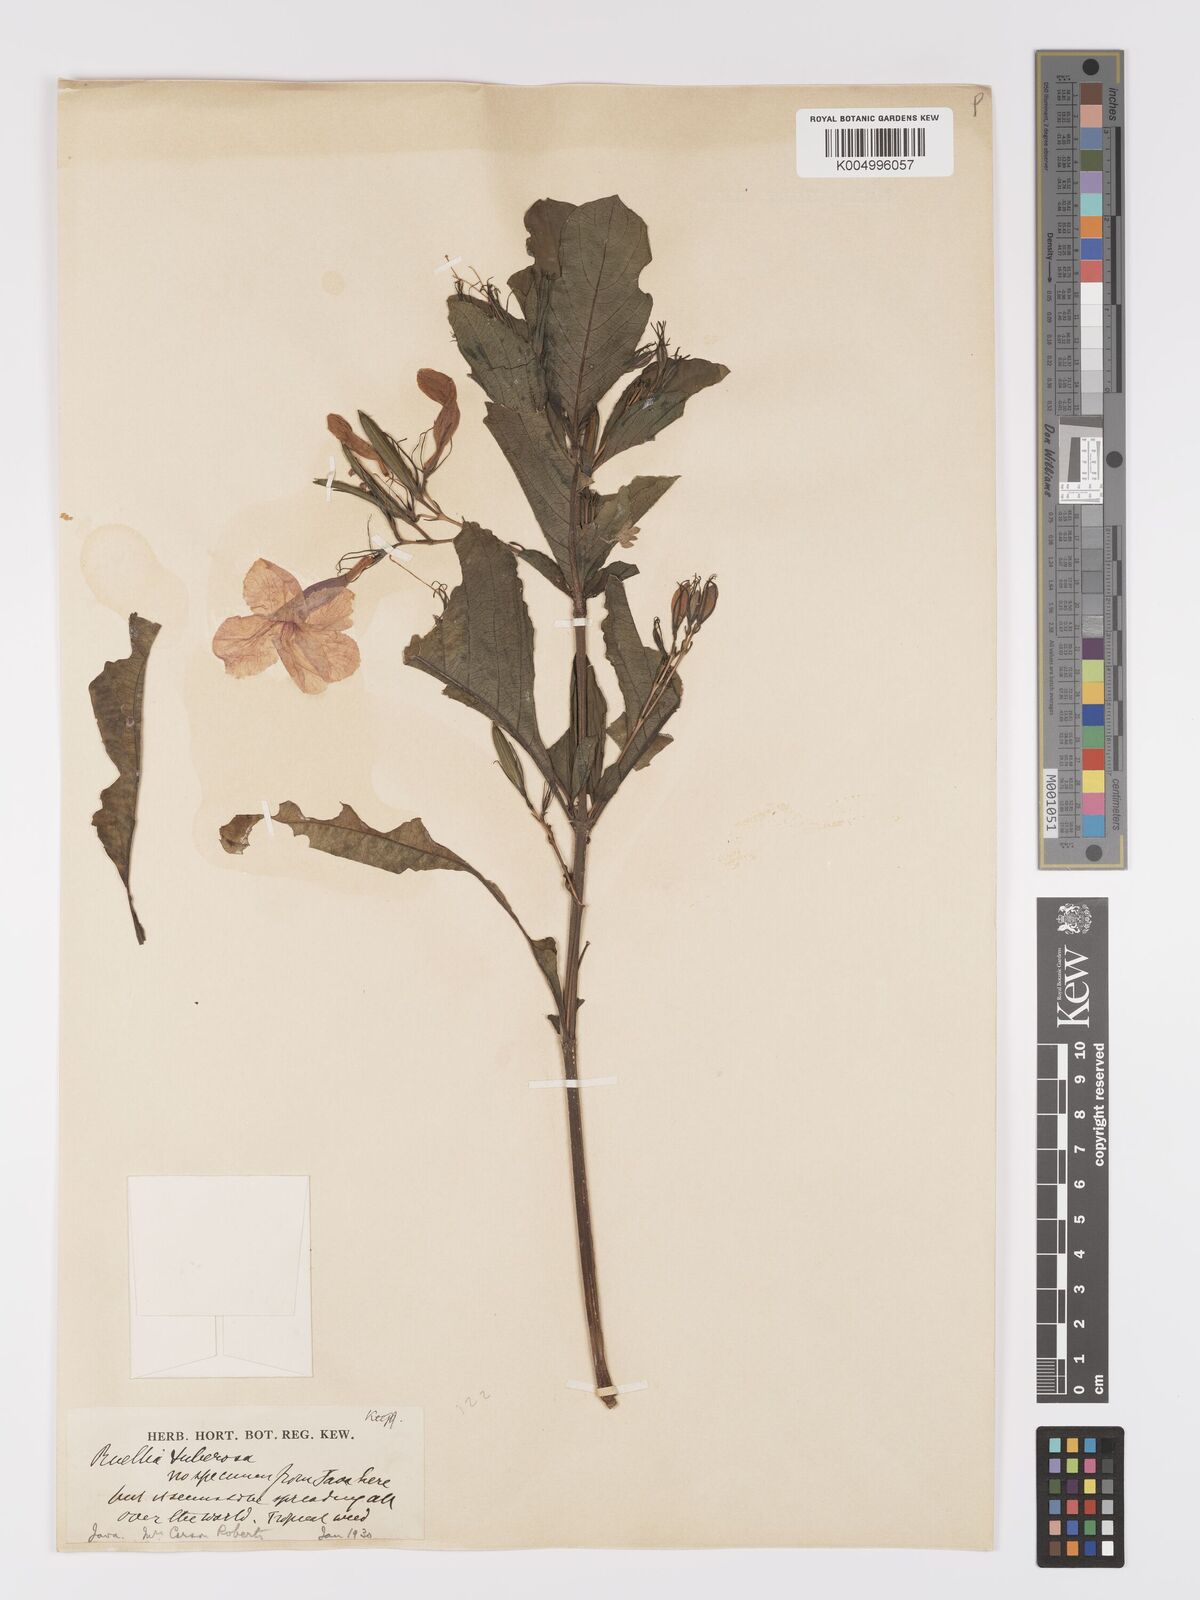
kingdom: Plantae
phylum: Tracheophyta
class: Magnoliopsida
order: Lamiales
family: Acanthaceae
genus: Ruellia
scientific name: Ruellia tuberosa
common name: Devil's bit
